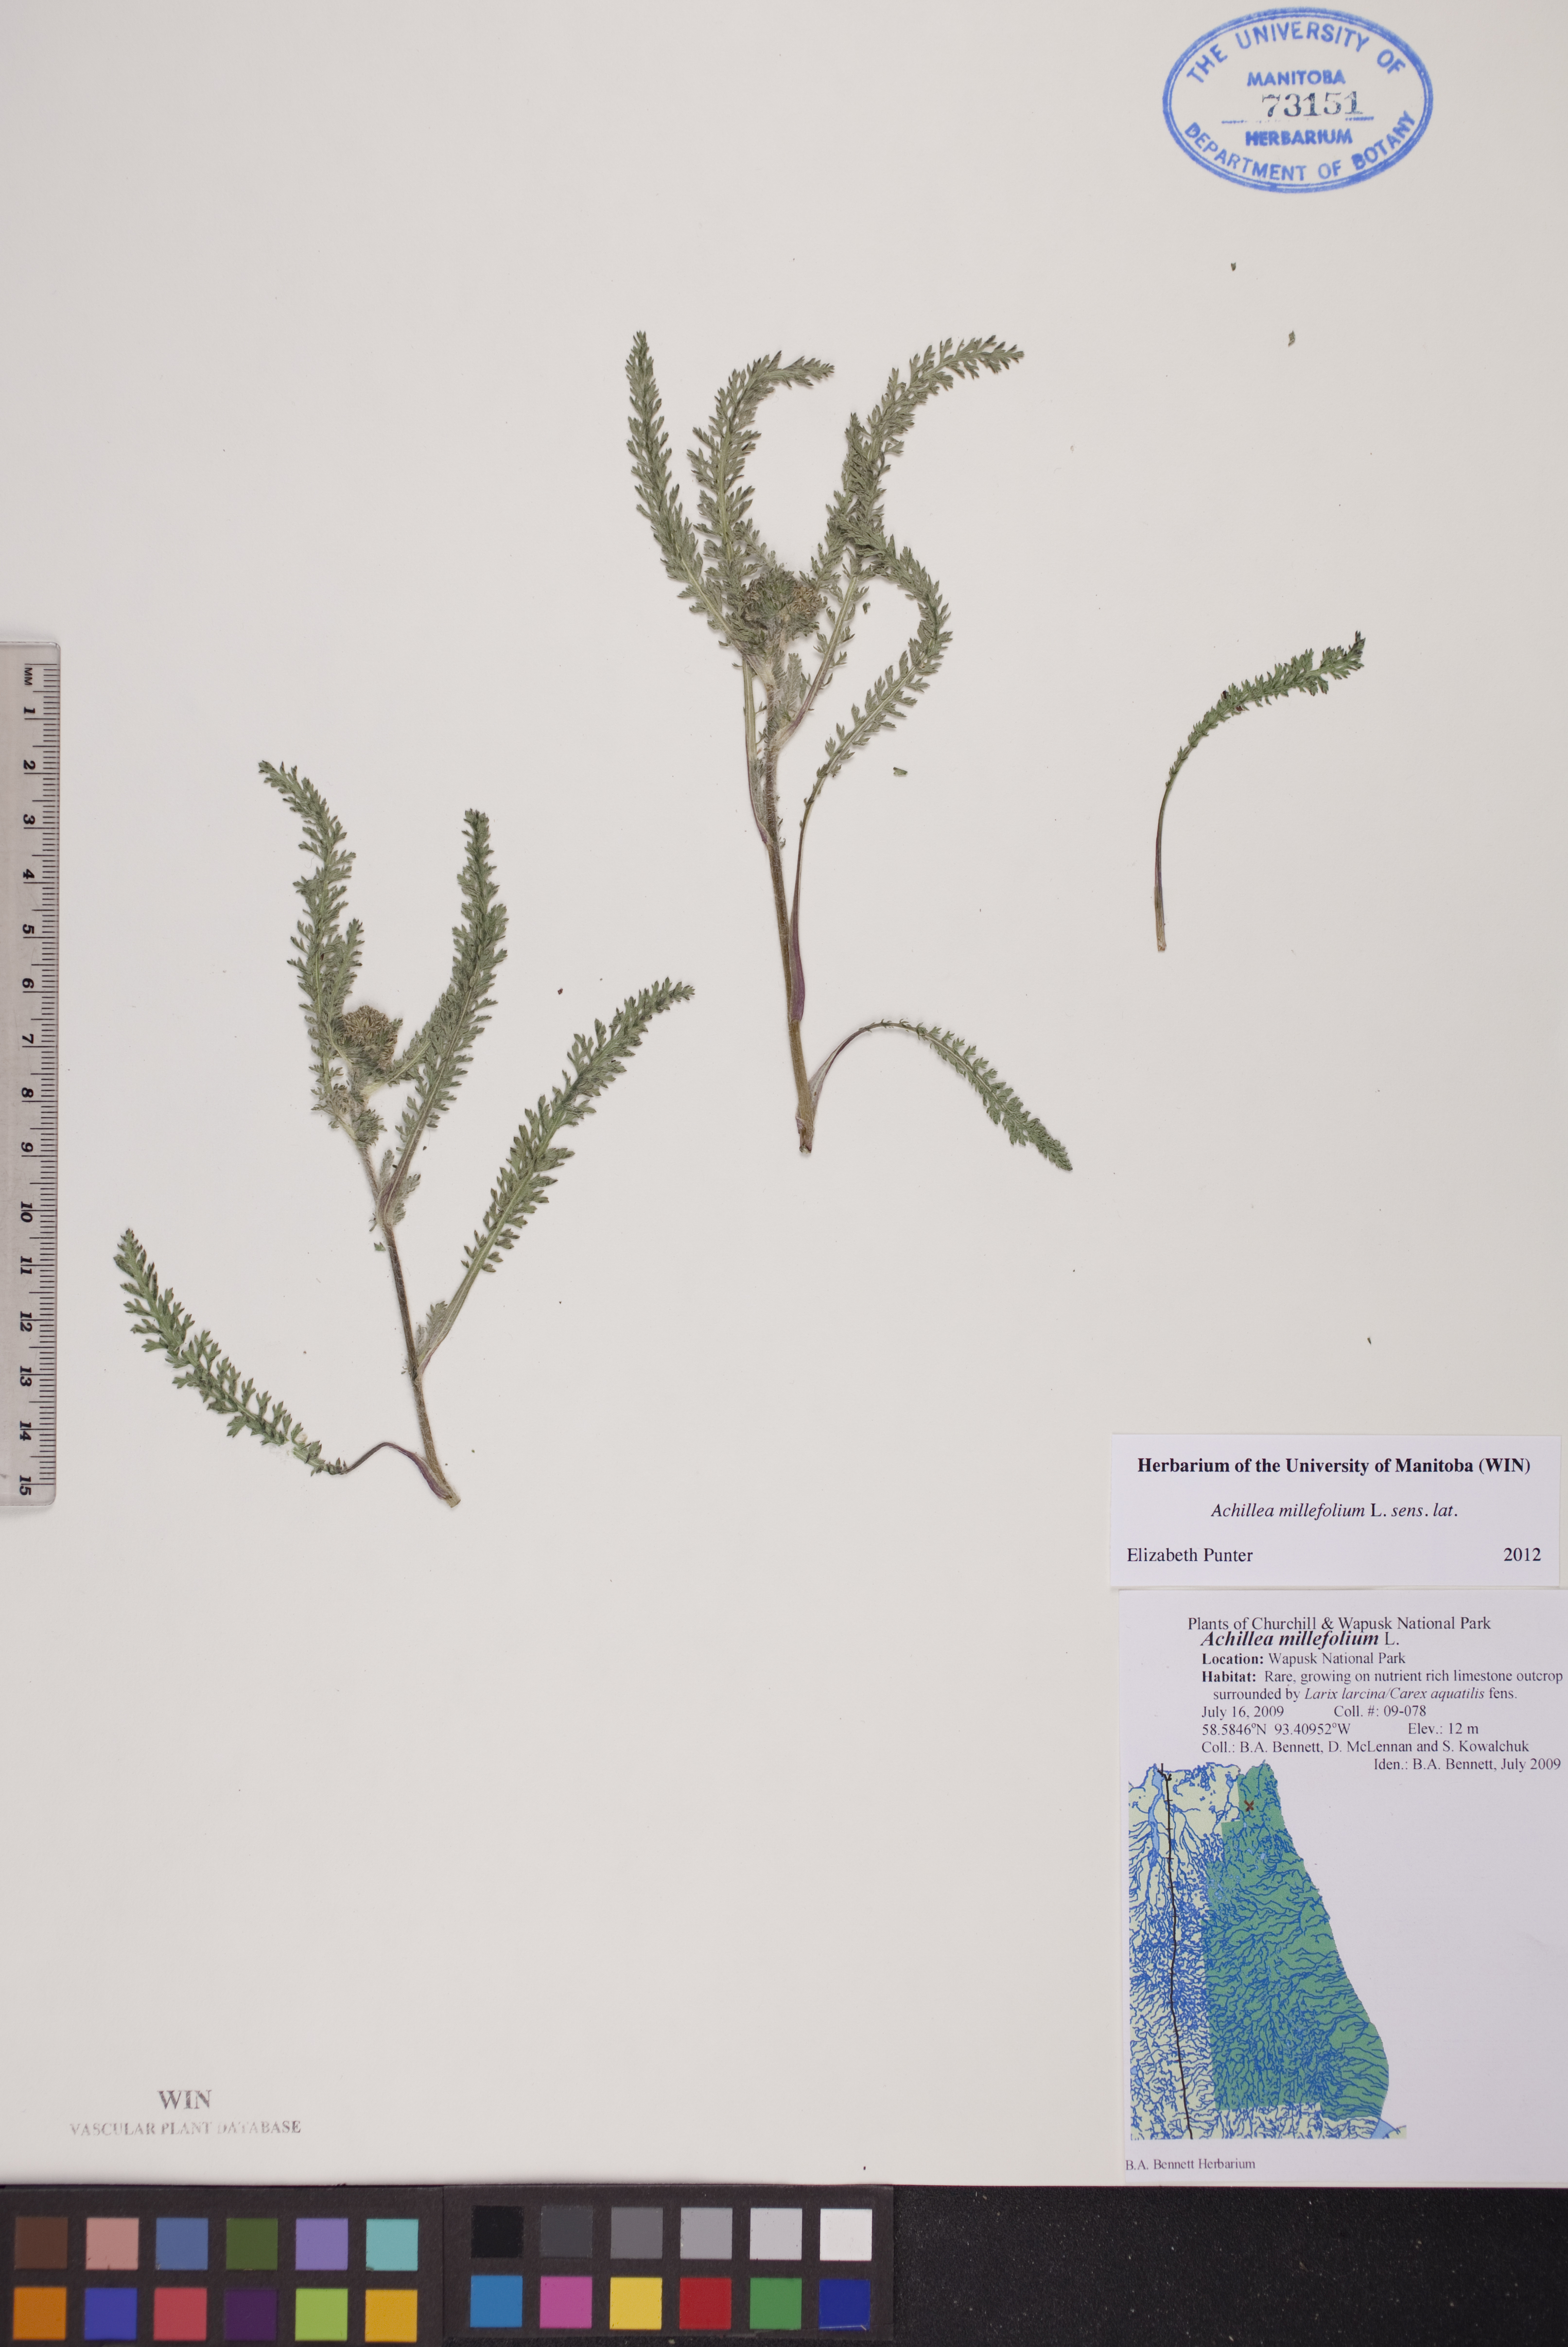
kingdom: Plantae
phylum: Tracheophyta
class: Magnoliopsida
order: Asterales
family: Asteraceae
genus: Achillea
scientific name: Achillea millefolium
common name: Yarrow
